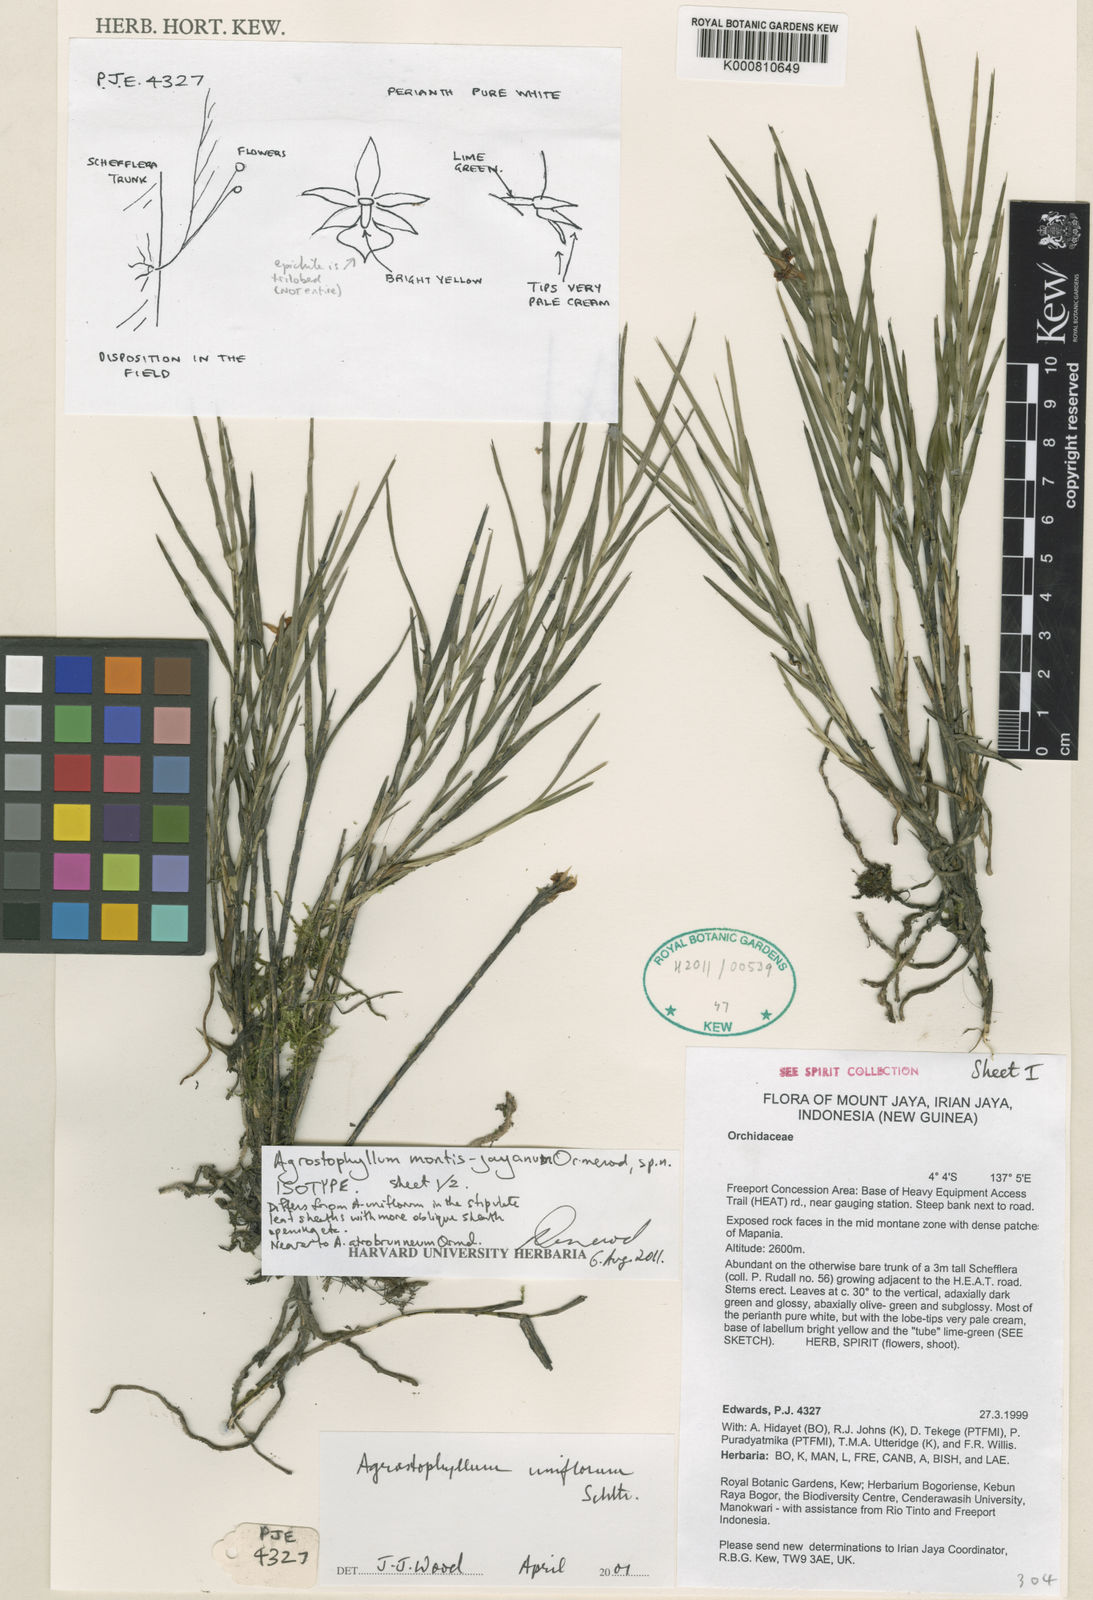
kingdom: Plantae
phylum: Tracheophyta
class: Liliopsida
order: Asparagales
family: Orchidaceae
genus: Agrostophyllum
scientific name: Agrostophyllum montis-jayanum
